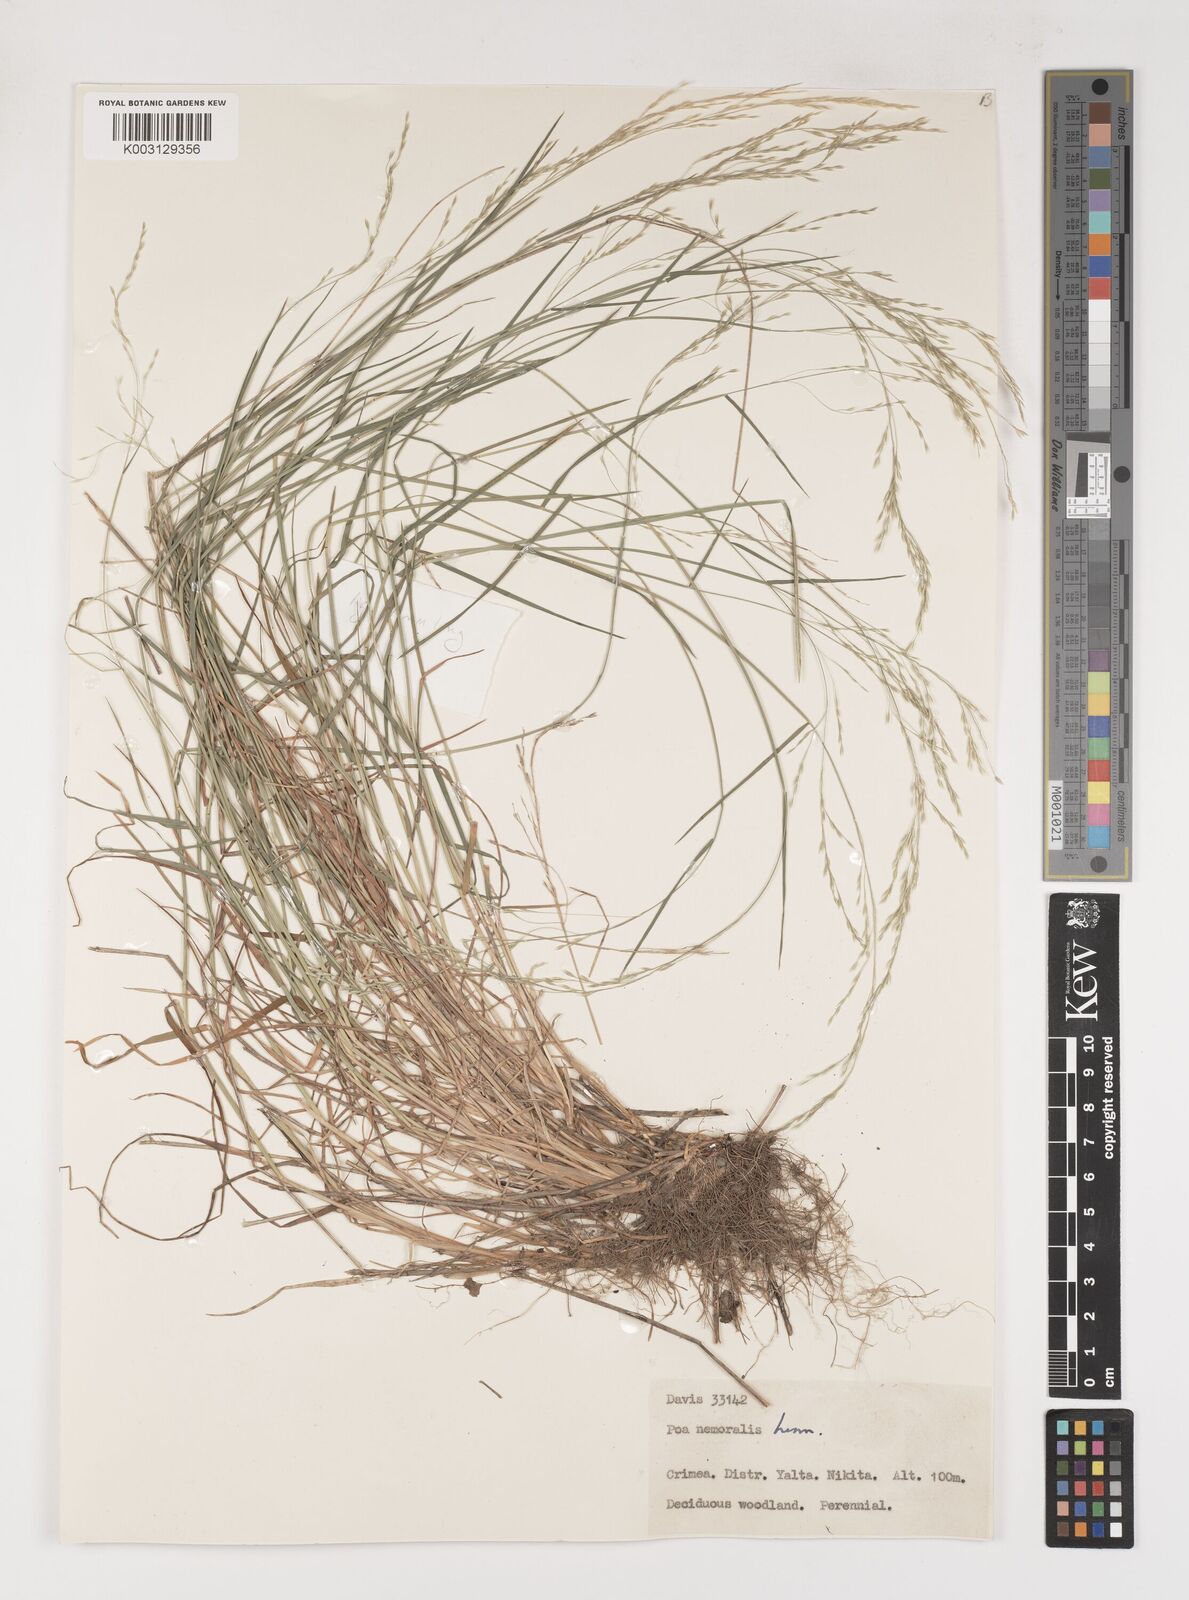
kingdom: Plantae
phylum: Tracheophyta
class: Liliopsida
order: Poales
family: Poaceae
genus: Poa
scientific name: Poa nemoralis
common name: Wood bluegrass
